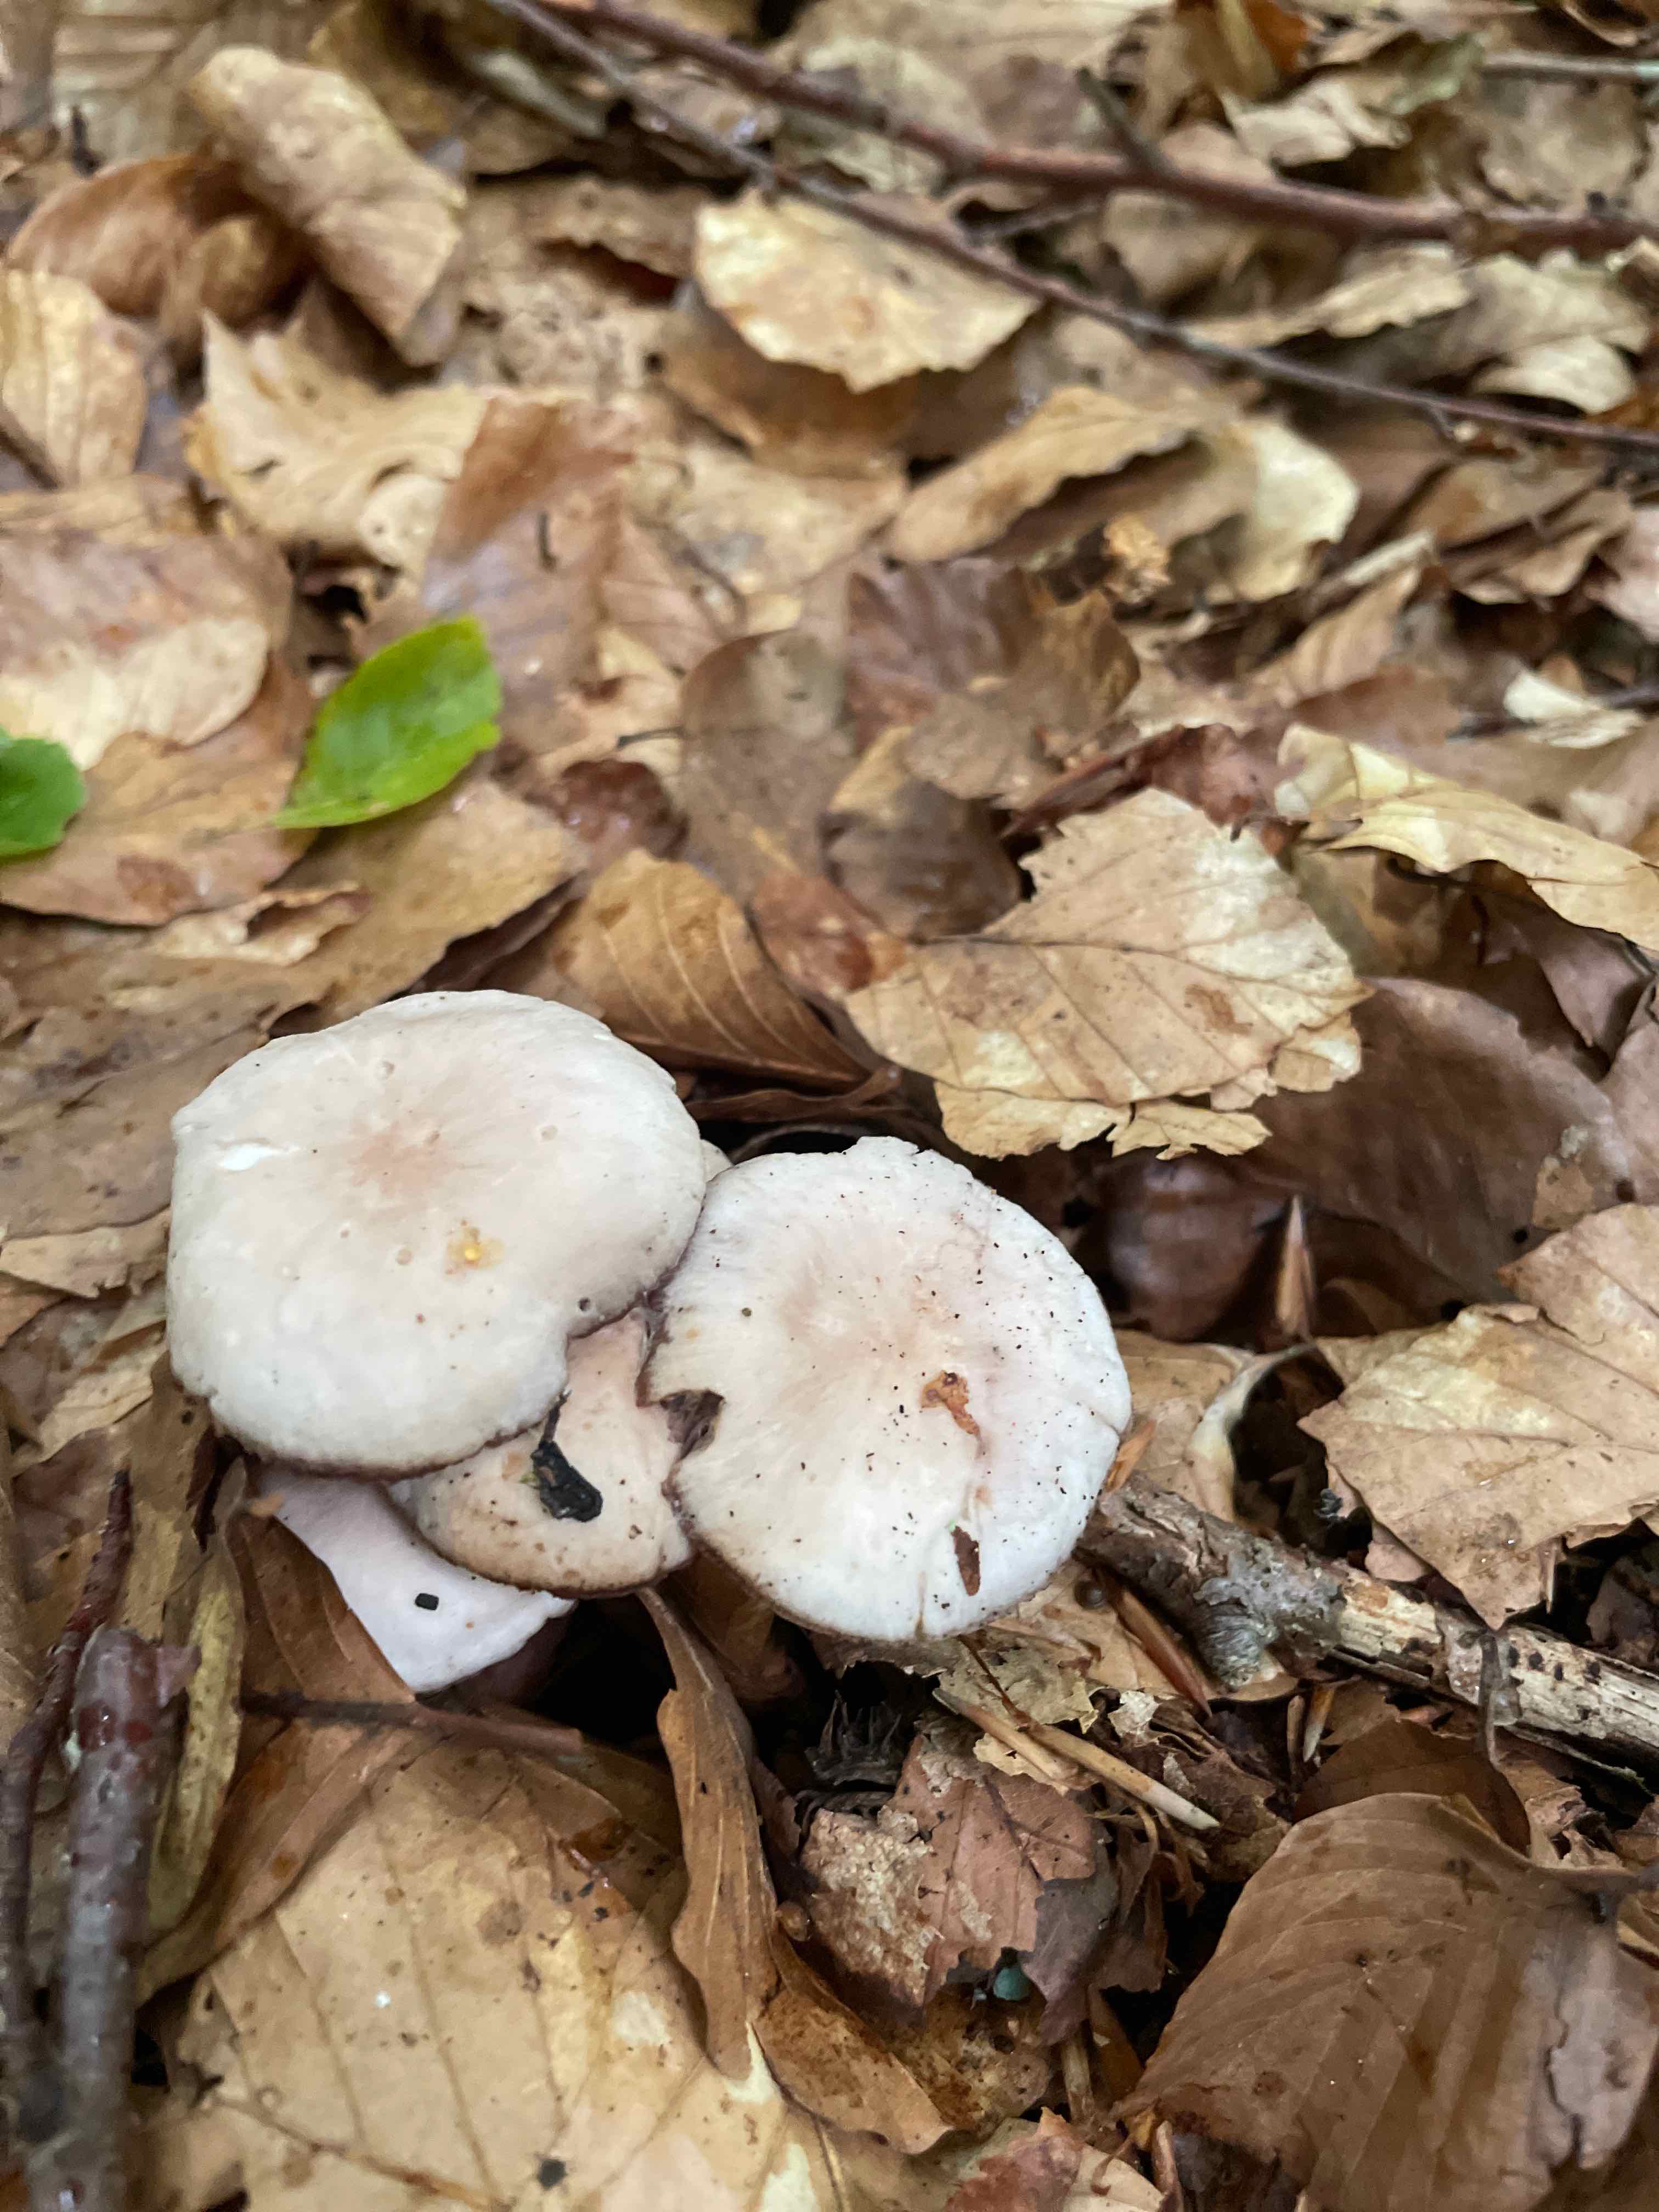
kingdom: Fungi
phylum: Basidiomycota
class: Agaricomycetes
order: Agaricales
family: Mycenaceae
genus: Mycena
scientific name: Mycena pelianthina
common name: mørkbladet huesvamp
